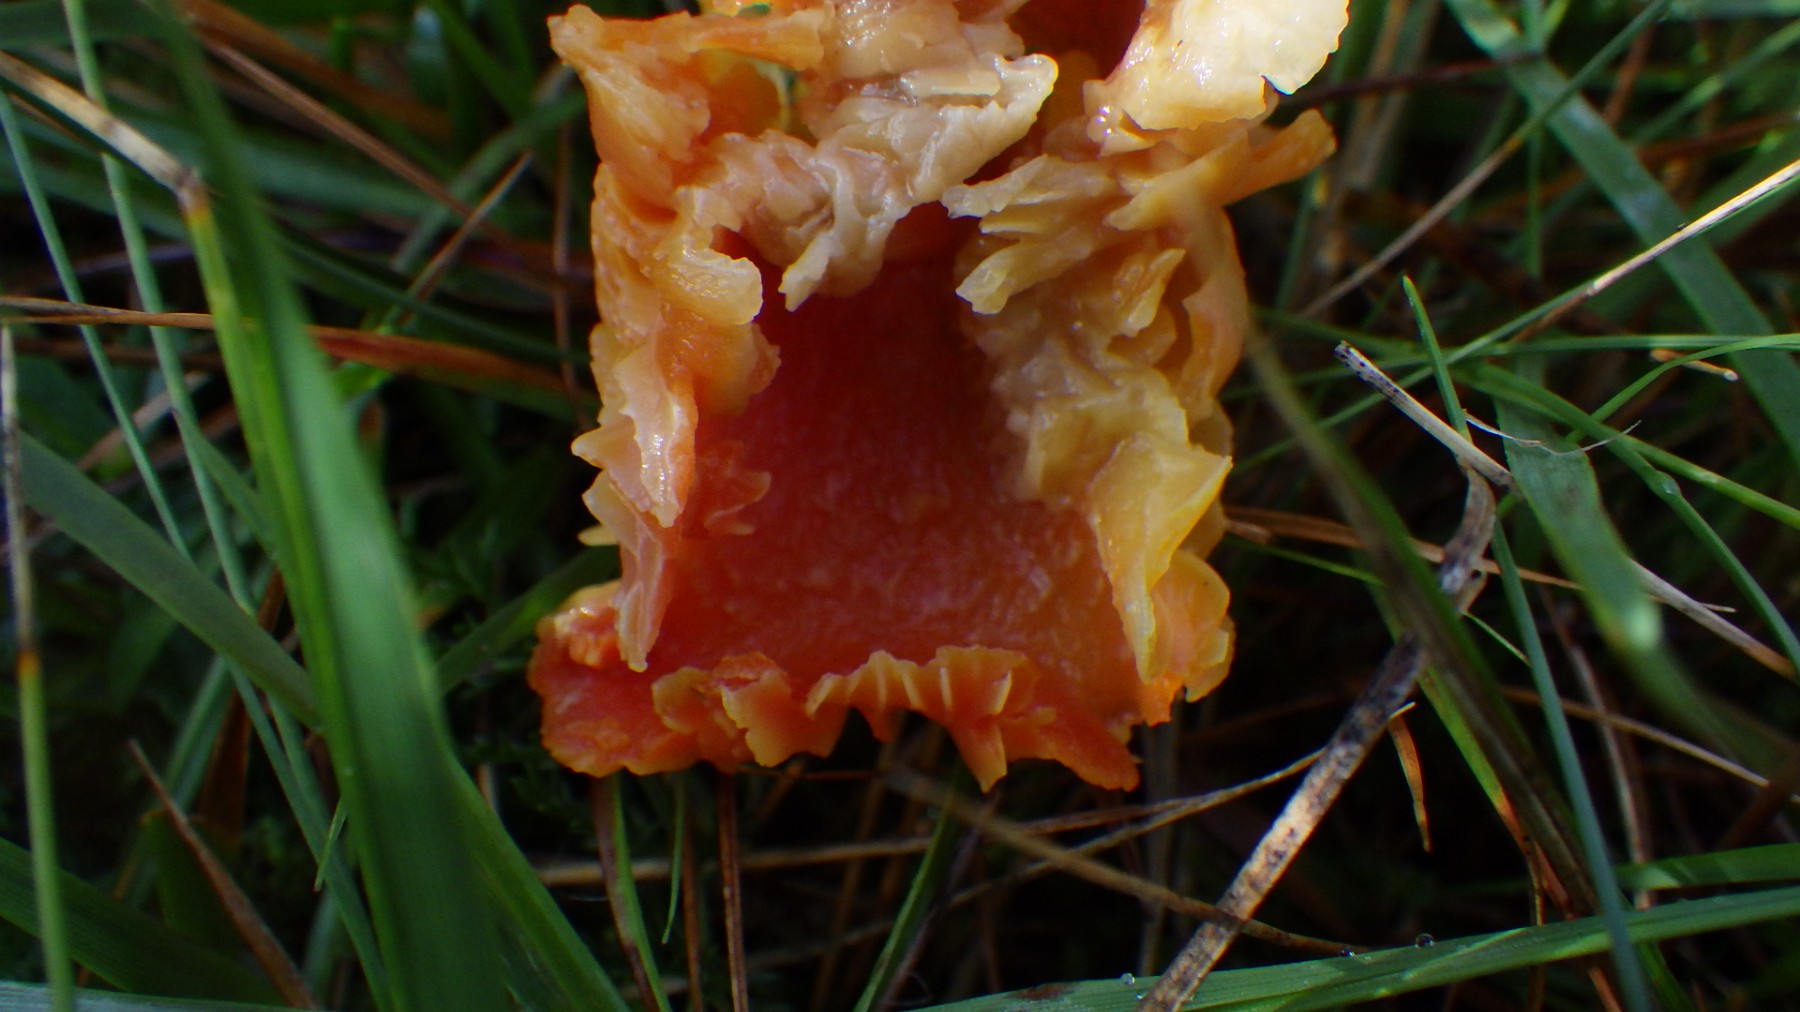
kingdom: Fungi
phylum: Basidiomycota
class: Agaricomycetes
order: Agaricales
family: Hygrophoraceae
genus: Hygrocybe
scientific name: Hygrocybe
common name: vokshat
